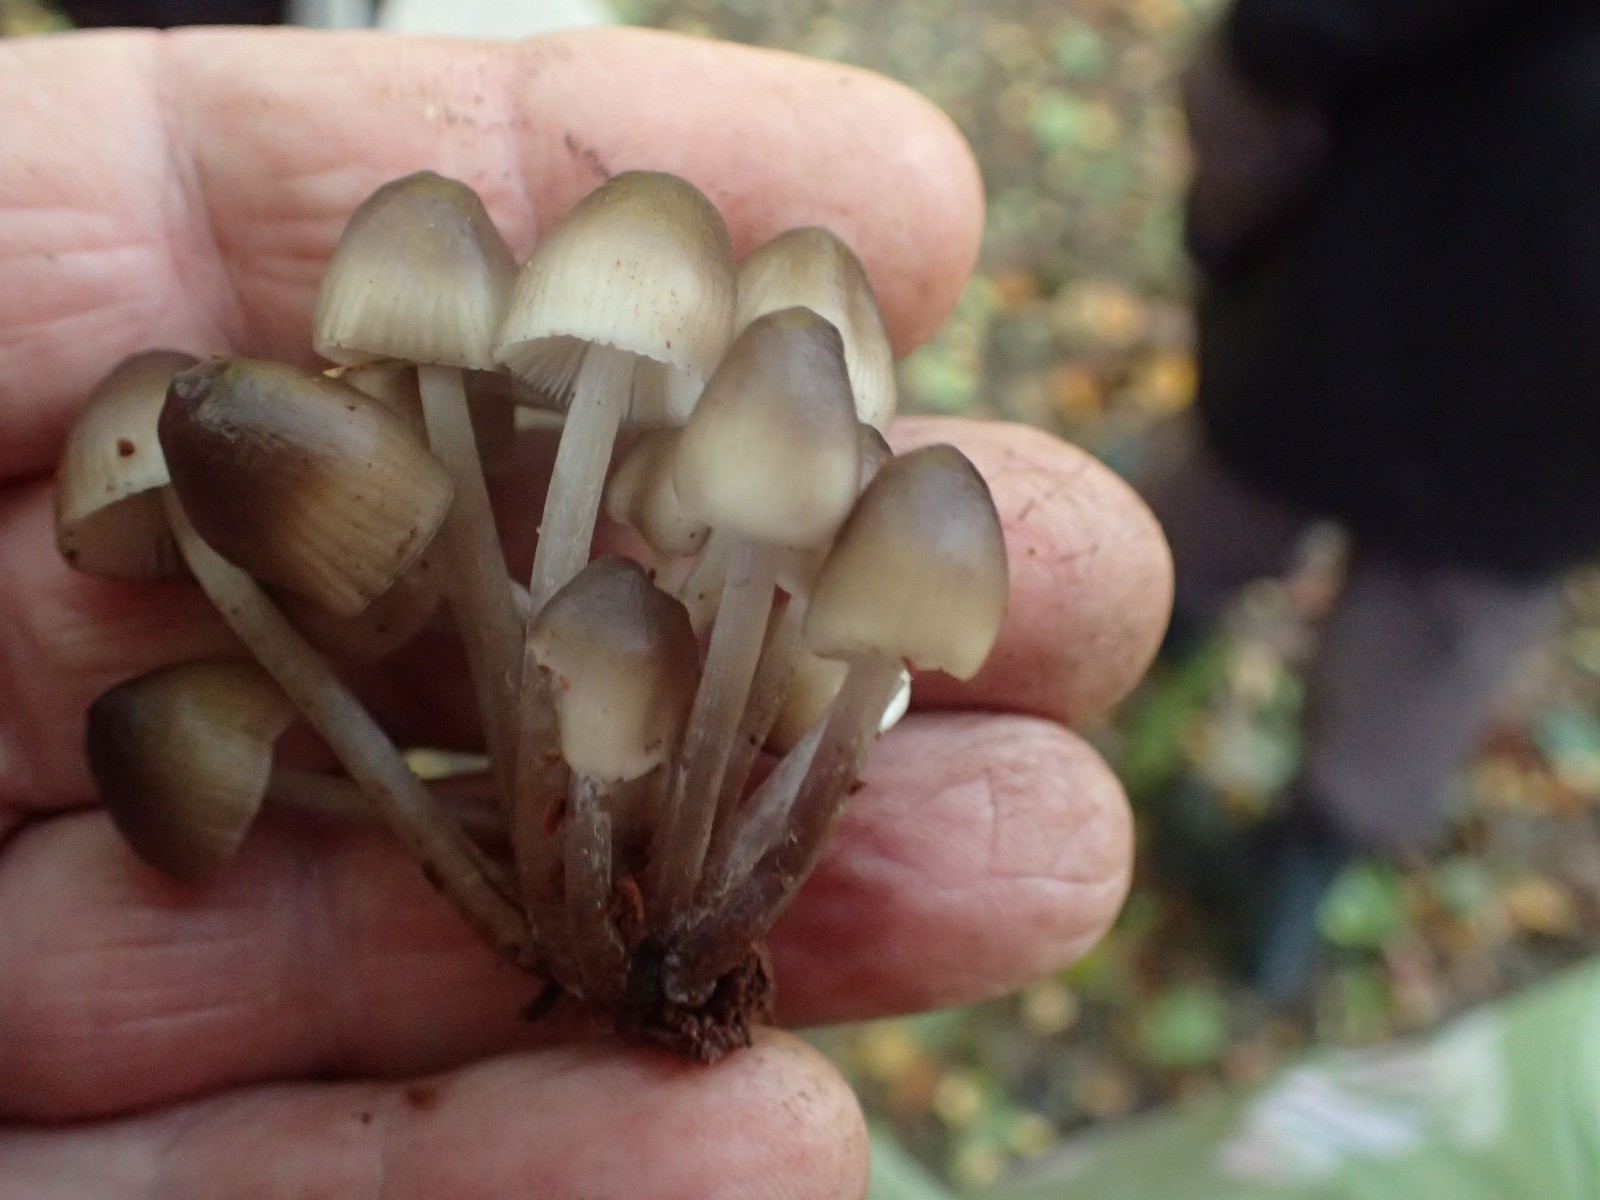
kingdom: Fungi
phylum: Basidiomycota
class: Agaricomycetes
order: Agaricales
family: Mycenaceae
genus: Mycena
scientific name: Mycena tintinnabulum
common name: vinter-huesvamp
